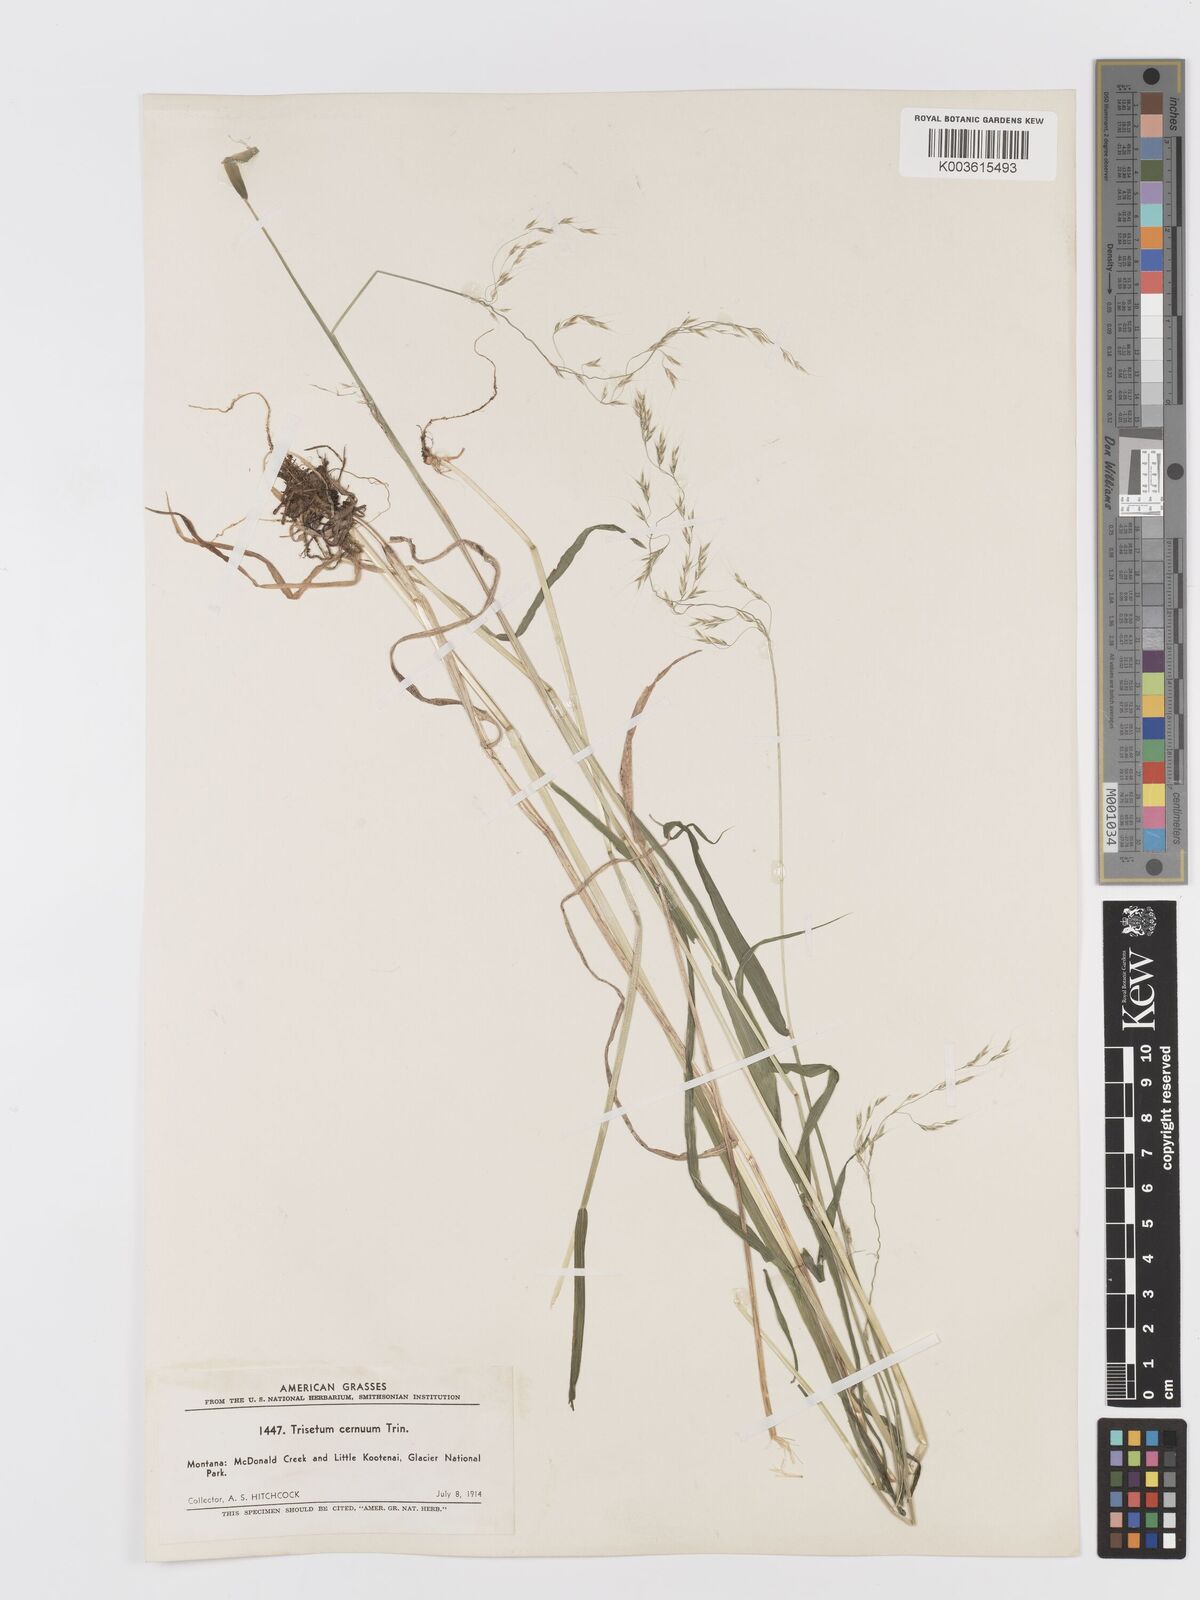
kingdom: Plantae
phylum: Tracheophyta
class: Liliopsida
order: Poales
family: Poaceae
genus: Graphephorum
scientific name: Graphephorum cernuum
